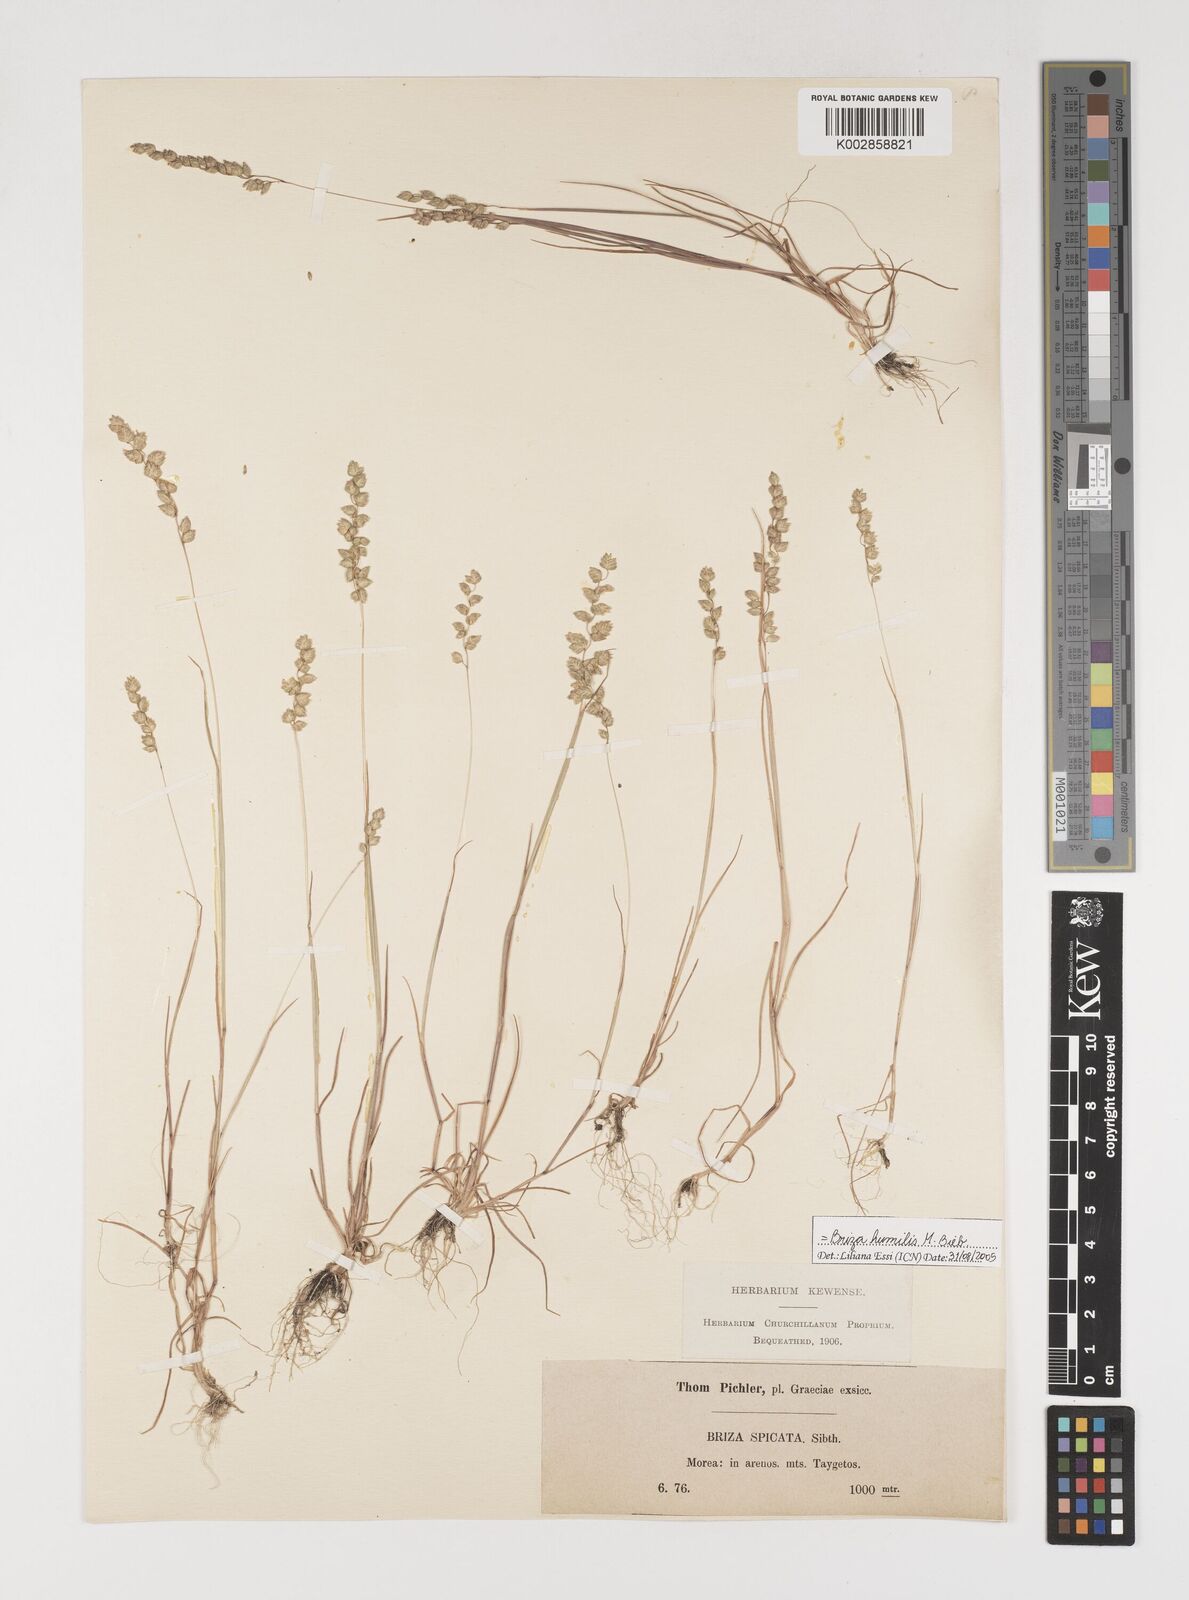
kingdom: Plantae
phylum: Tracheophyta
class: Liliopsida
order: Poales
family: Poaceae
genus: Briza
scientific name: Briza humilis
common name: Spiked quaking grass
